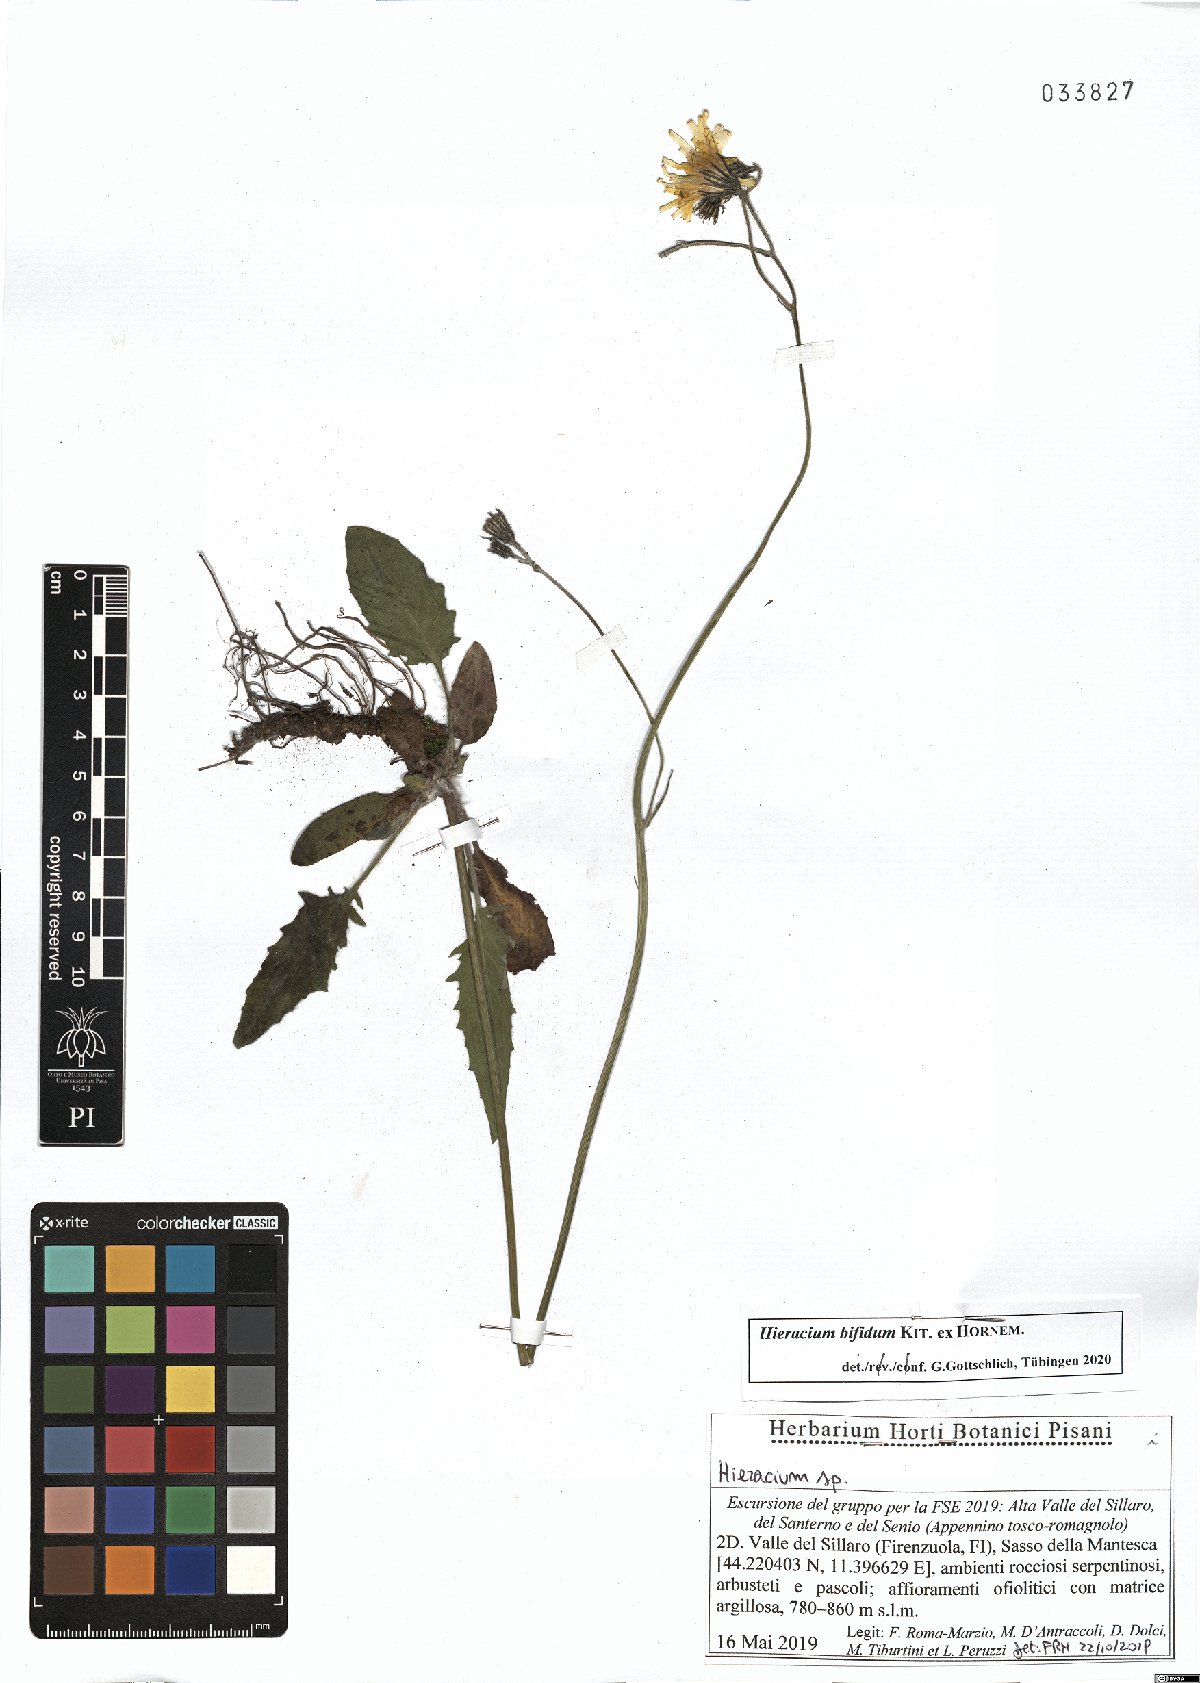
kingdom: Plantae
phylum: Tracheophyta
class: Magnoliopsida
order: Asterales
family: Asteraceae
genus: Hieracium
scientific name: Hieracium bifidum
